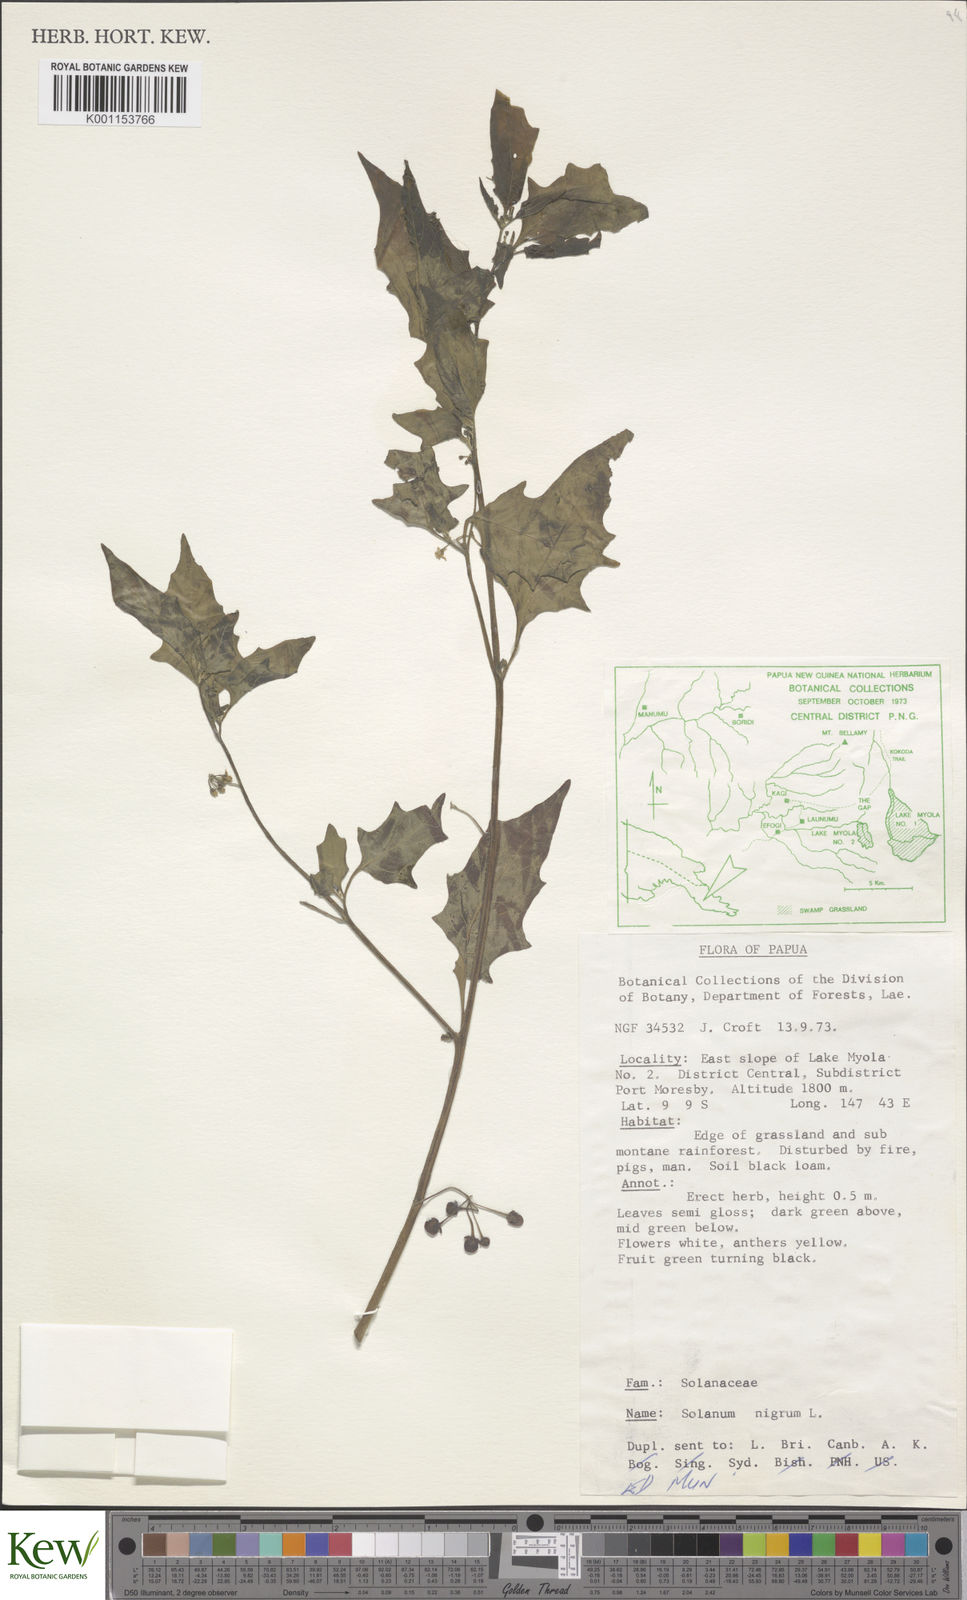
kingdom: Plantae
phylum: Tracheophyta
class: Magnoliopsida
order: Solanales
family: Solanaceae
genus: Solanum
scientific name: Solanum nigrum
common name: Black nightshade
